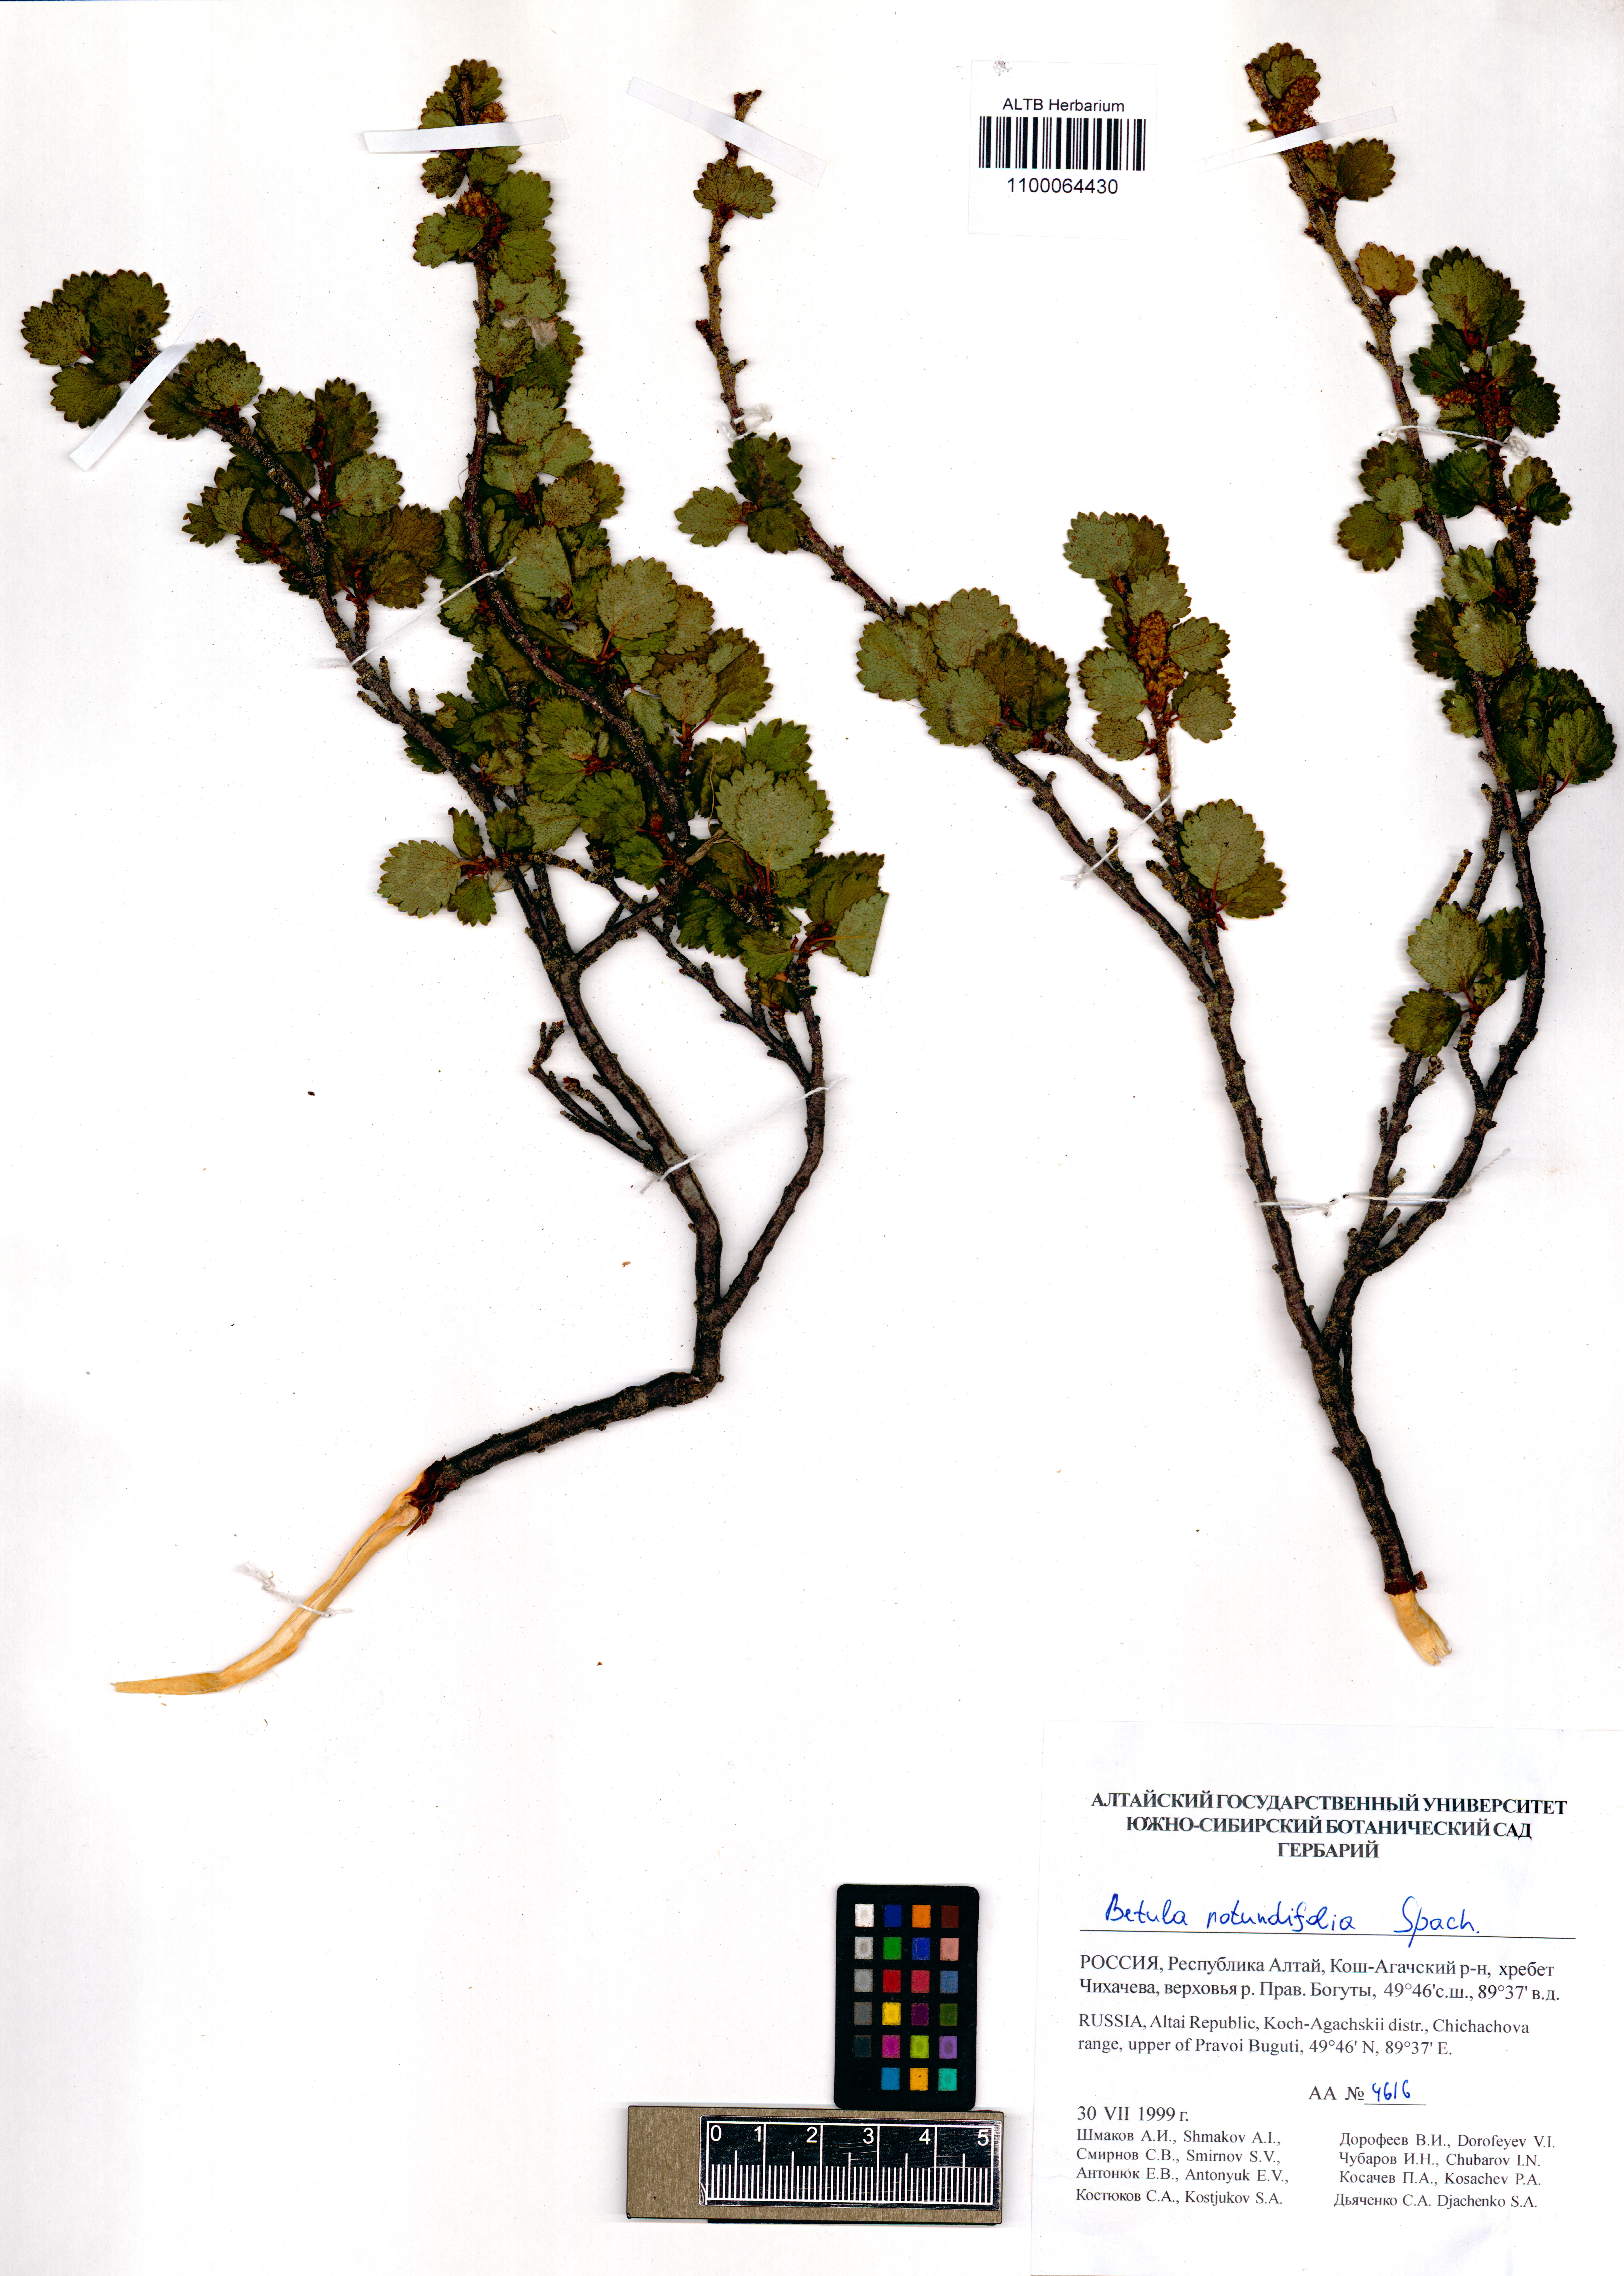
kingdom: Plantae
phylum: Tracheophyta
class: Magnoliopsida
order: Fagales
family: Betulaceae
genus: Betula
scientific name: Betula glandulosa
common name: Dwarf birch
